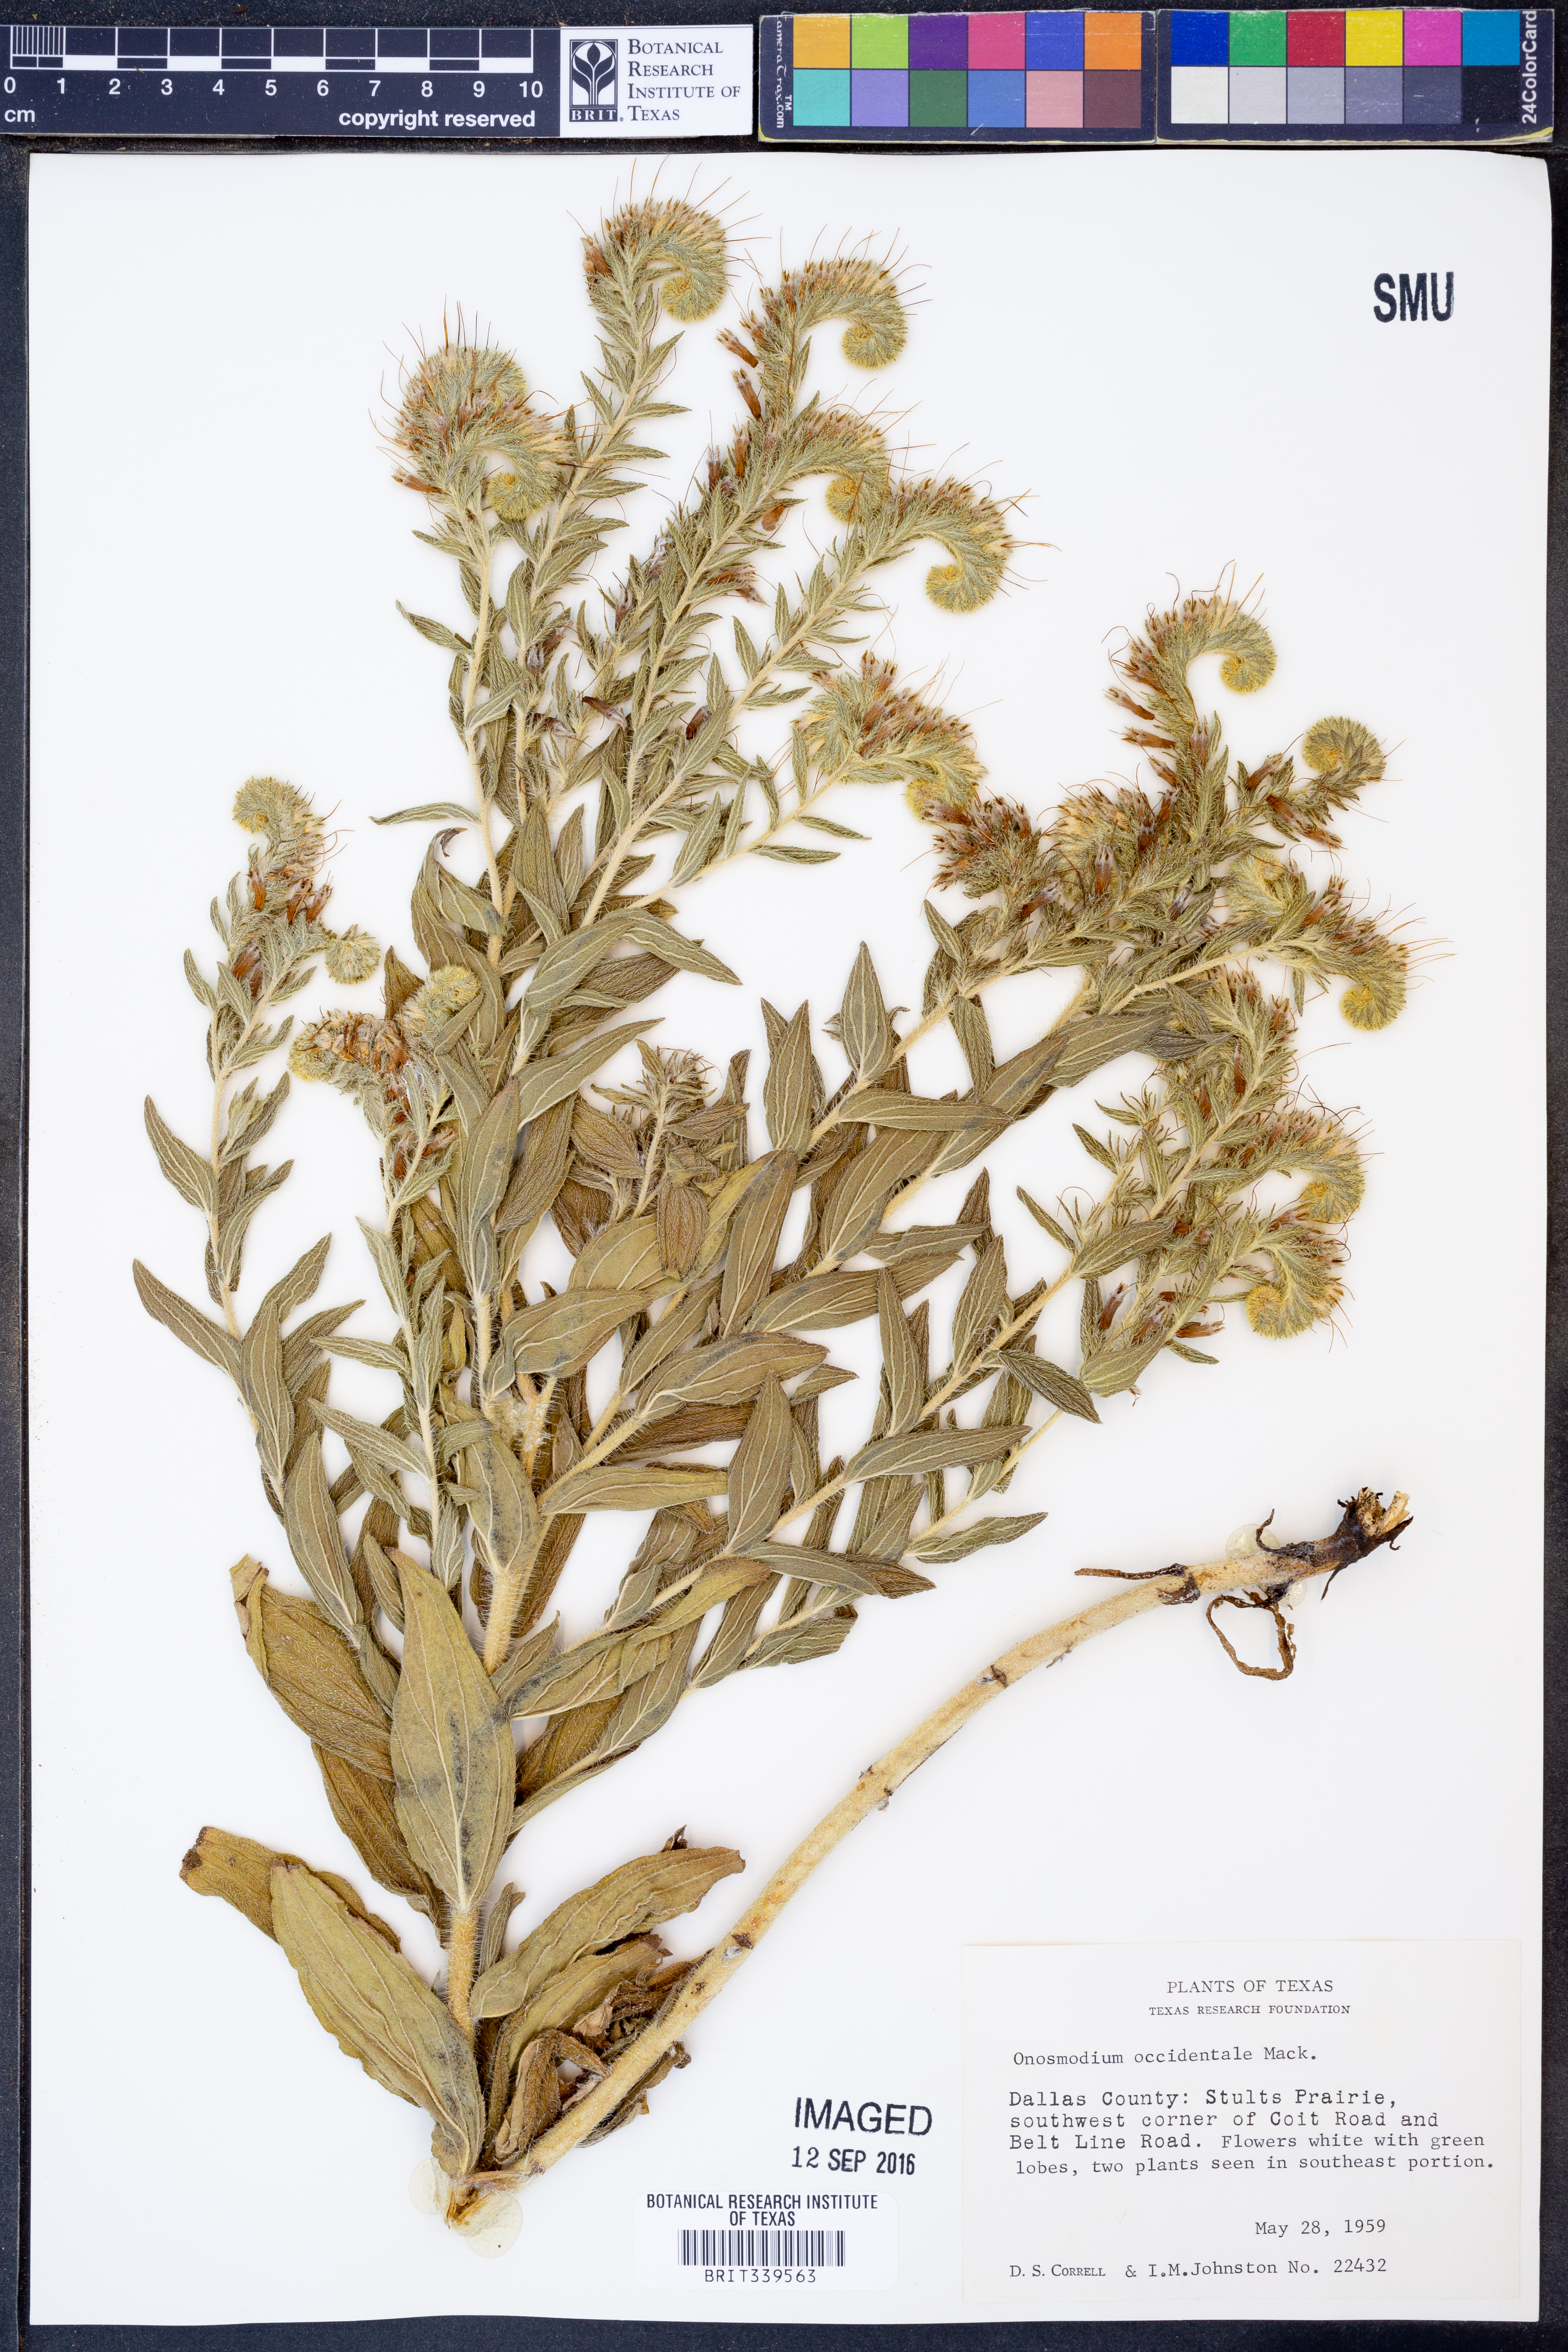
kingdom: Plantae
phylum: Tracheophyta
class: Magnoliopsida
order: Boraginales
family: Boraginaceae
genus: Lithospermum
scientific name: Lithospermum occidentale
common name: Western false gromwell
